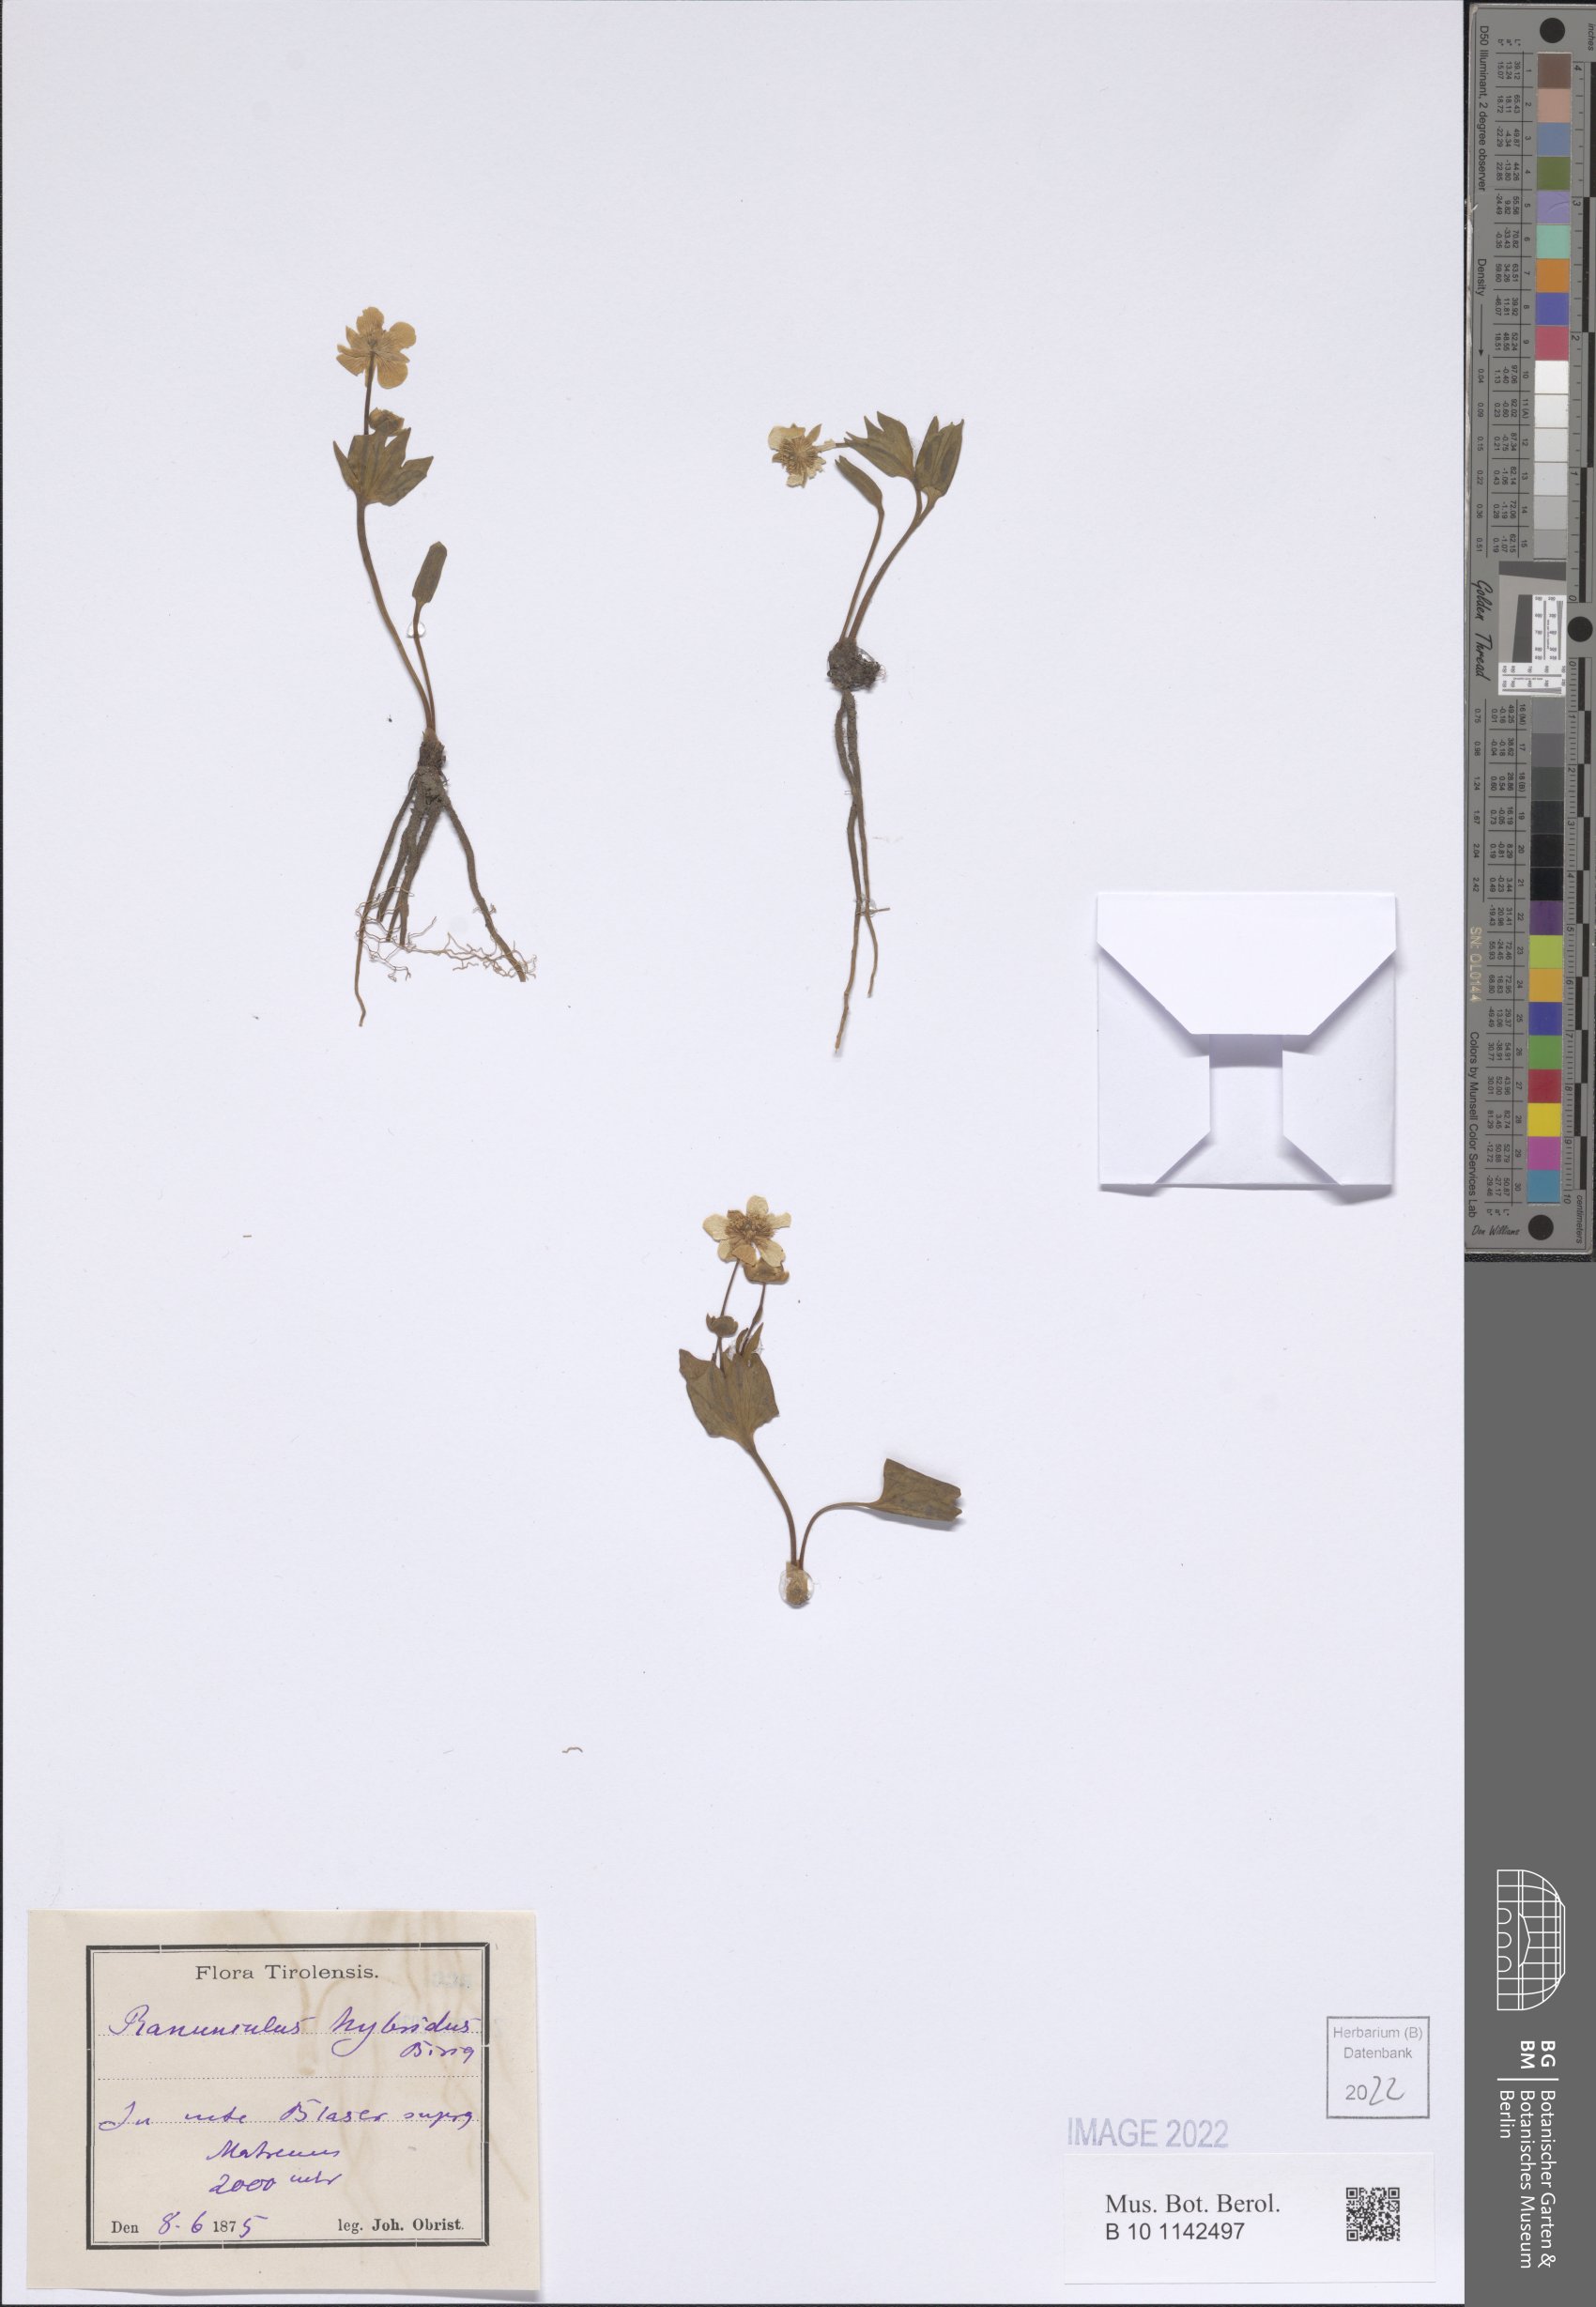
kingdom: Plantae
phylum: Tracheophyta
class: Magnoliopsida
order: Ranunculales
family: Ranunculaceae
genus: Ranunculus
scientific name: Ranunculus hybridus
